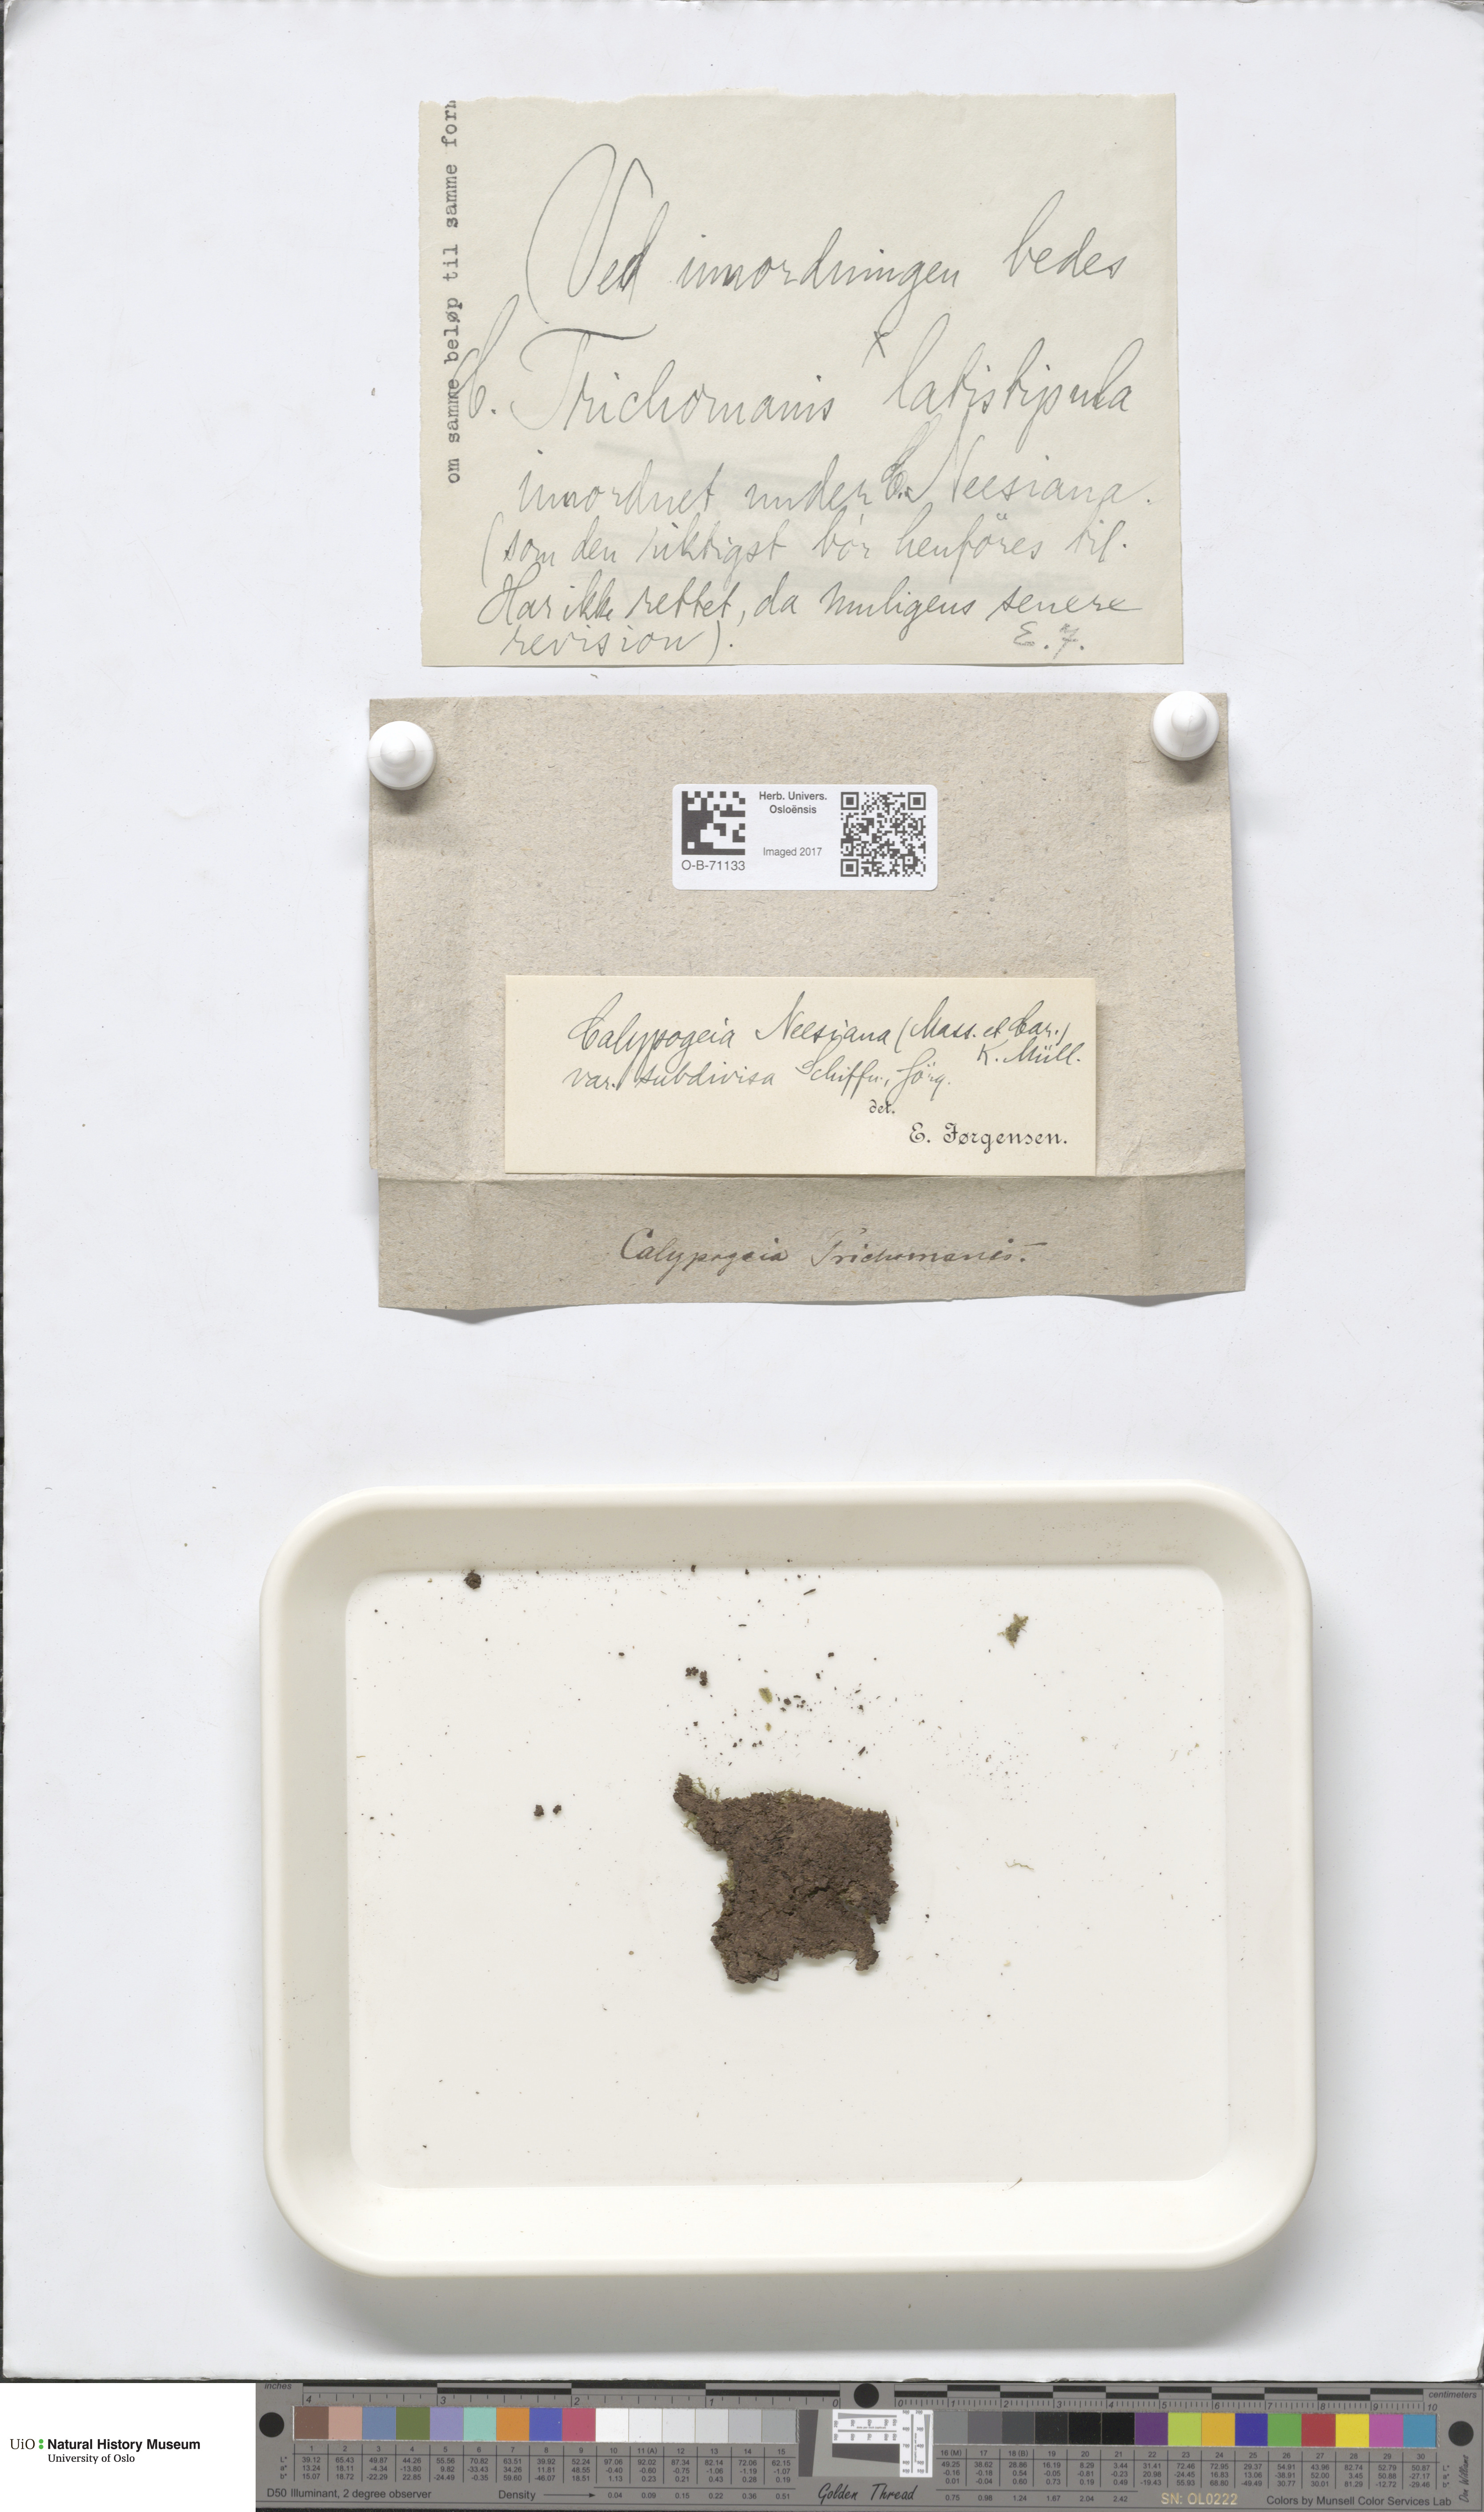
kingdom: Plantae
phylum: Marchantiophyta
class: Jungermanniopsida
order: Jungermanniales
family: Calypogeiaceae
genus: Calypogeia
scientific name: Calypogeia neesiana
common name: Nees  pouchwort
